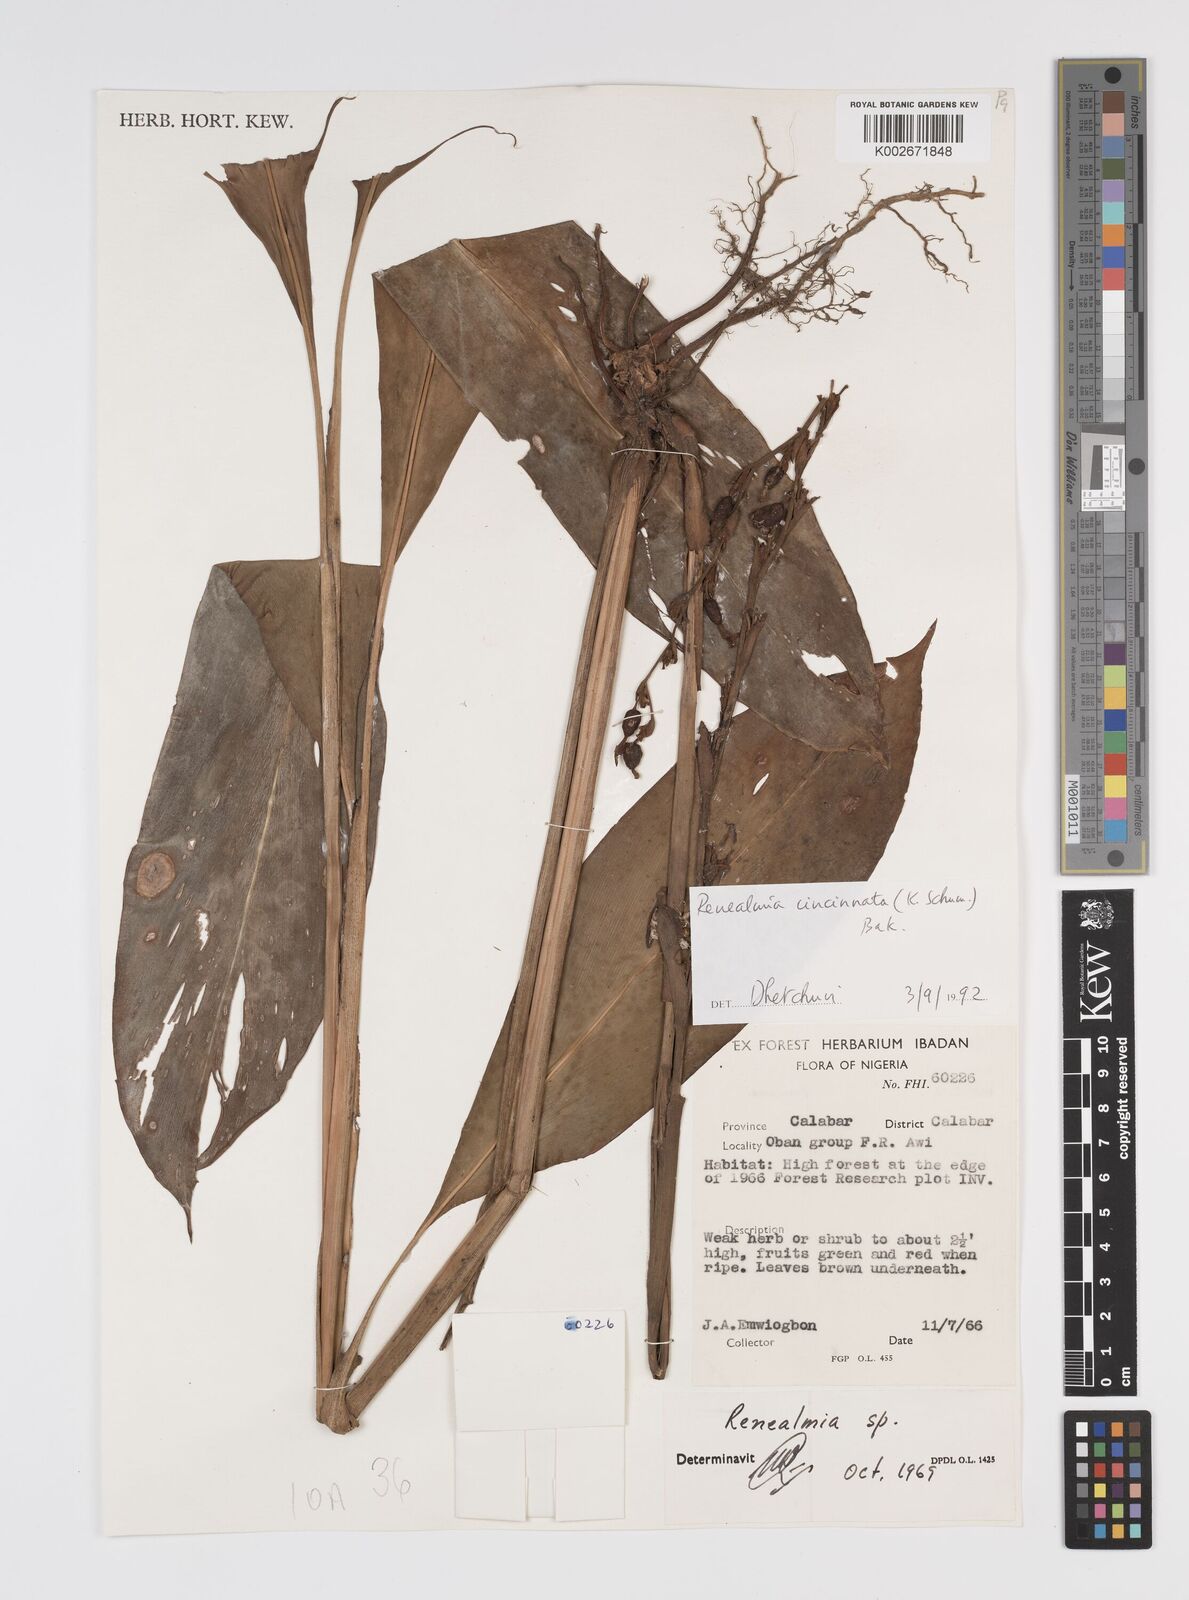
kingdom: Plantae
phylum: Tracheophyta
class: Liliopsida
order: Zingiberales
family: Zingiberaceae
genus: Renealmia
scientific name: Renealmia
